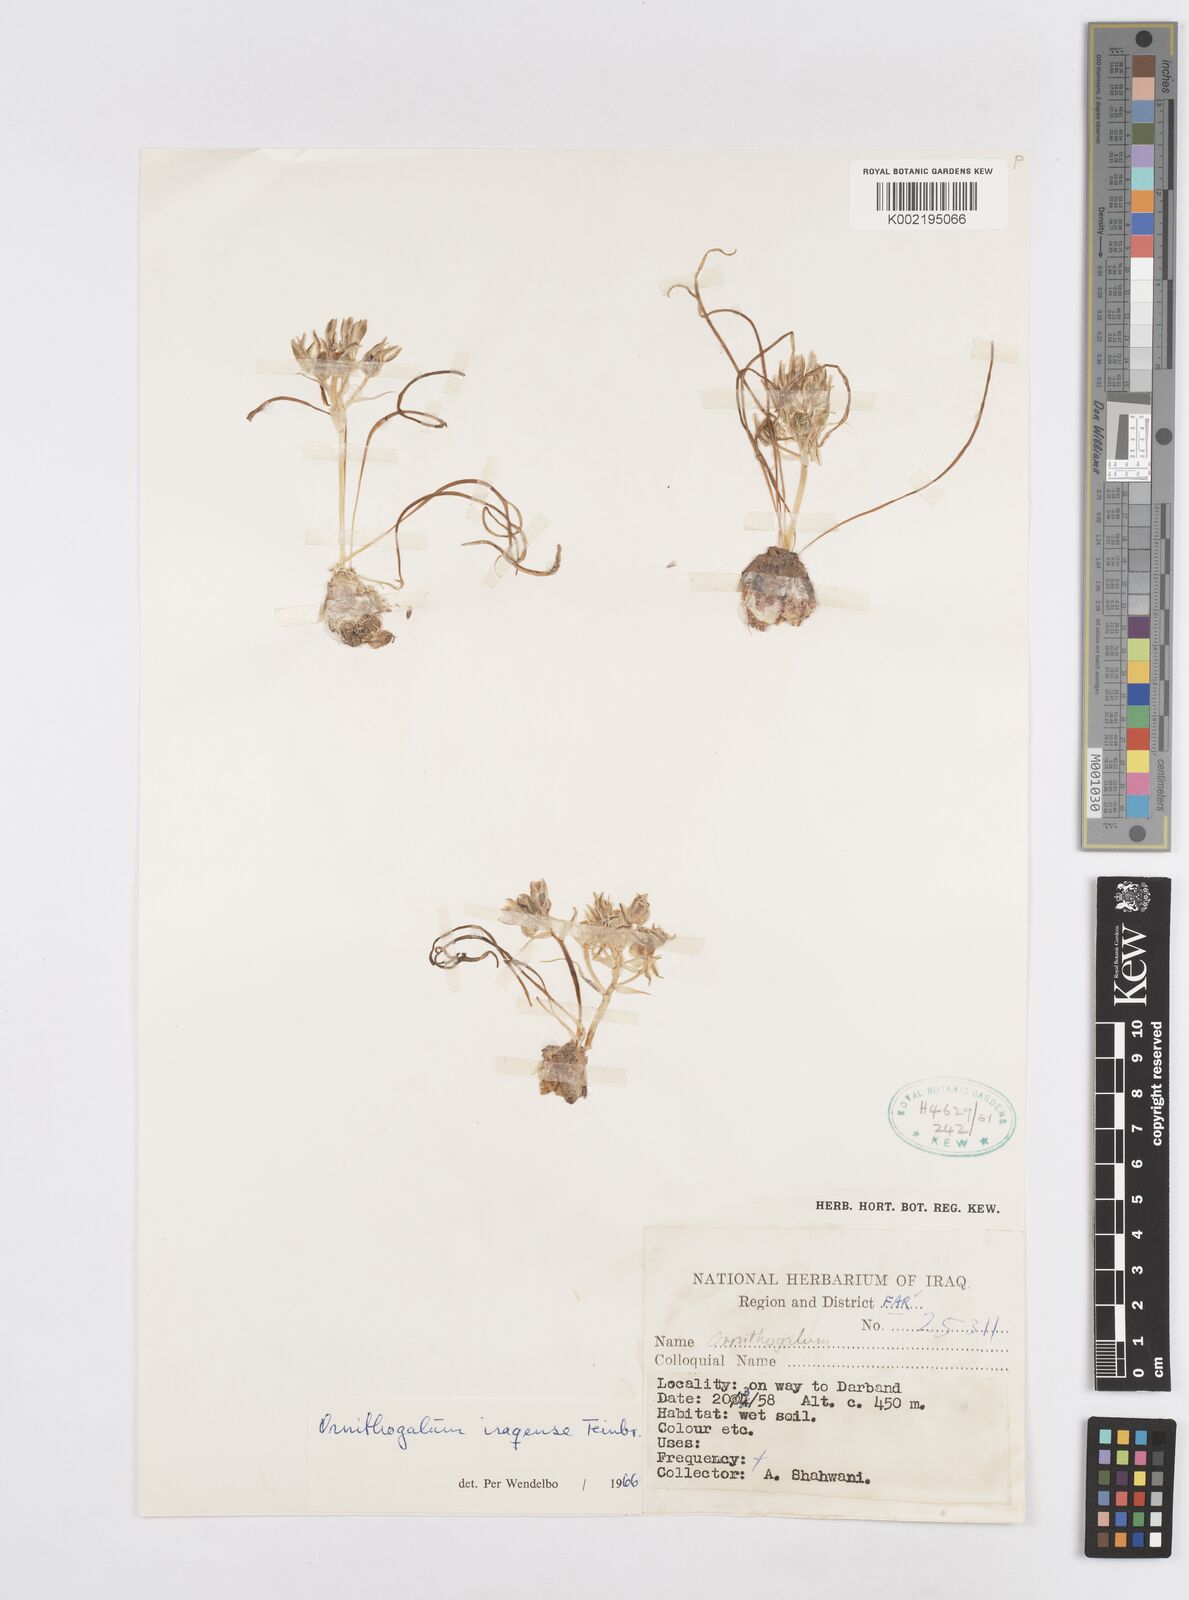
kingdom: Plantae
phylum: Tracheophyta
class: Liliopsida
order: Asparagales
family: Asparagaceae
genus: Ornithogalum
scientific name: Ornithogalum iraqense
